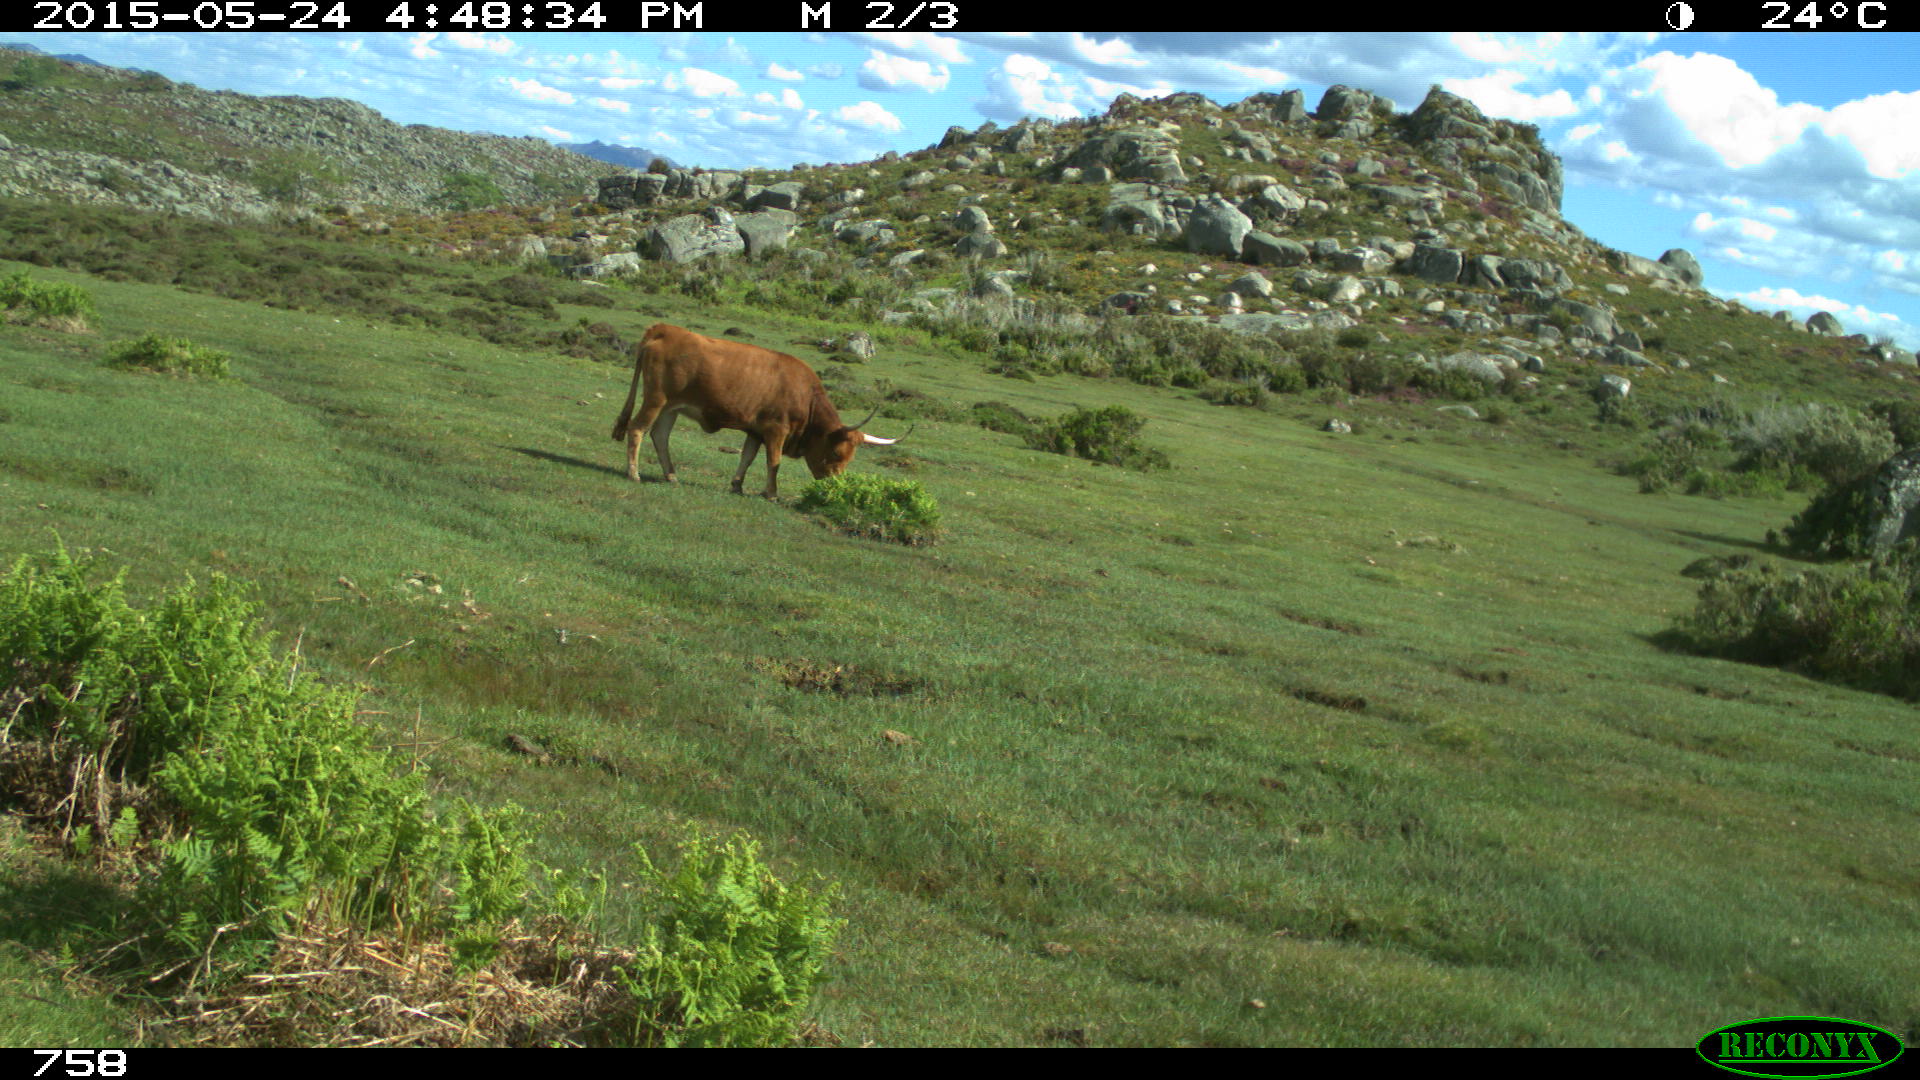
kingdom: Animalia
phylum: Chordata
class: Mammalia
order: Artiodactyla
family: Bovidae
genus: Bos
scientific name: Bos taurus
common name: Domesticated cattle
